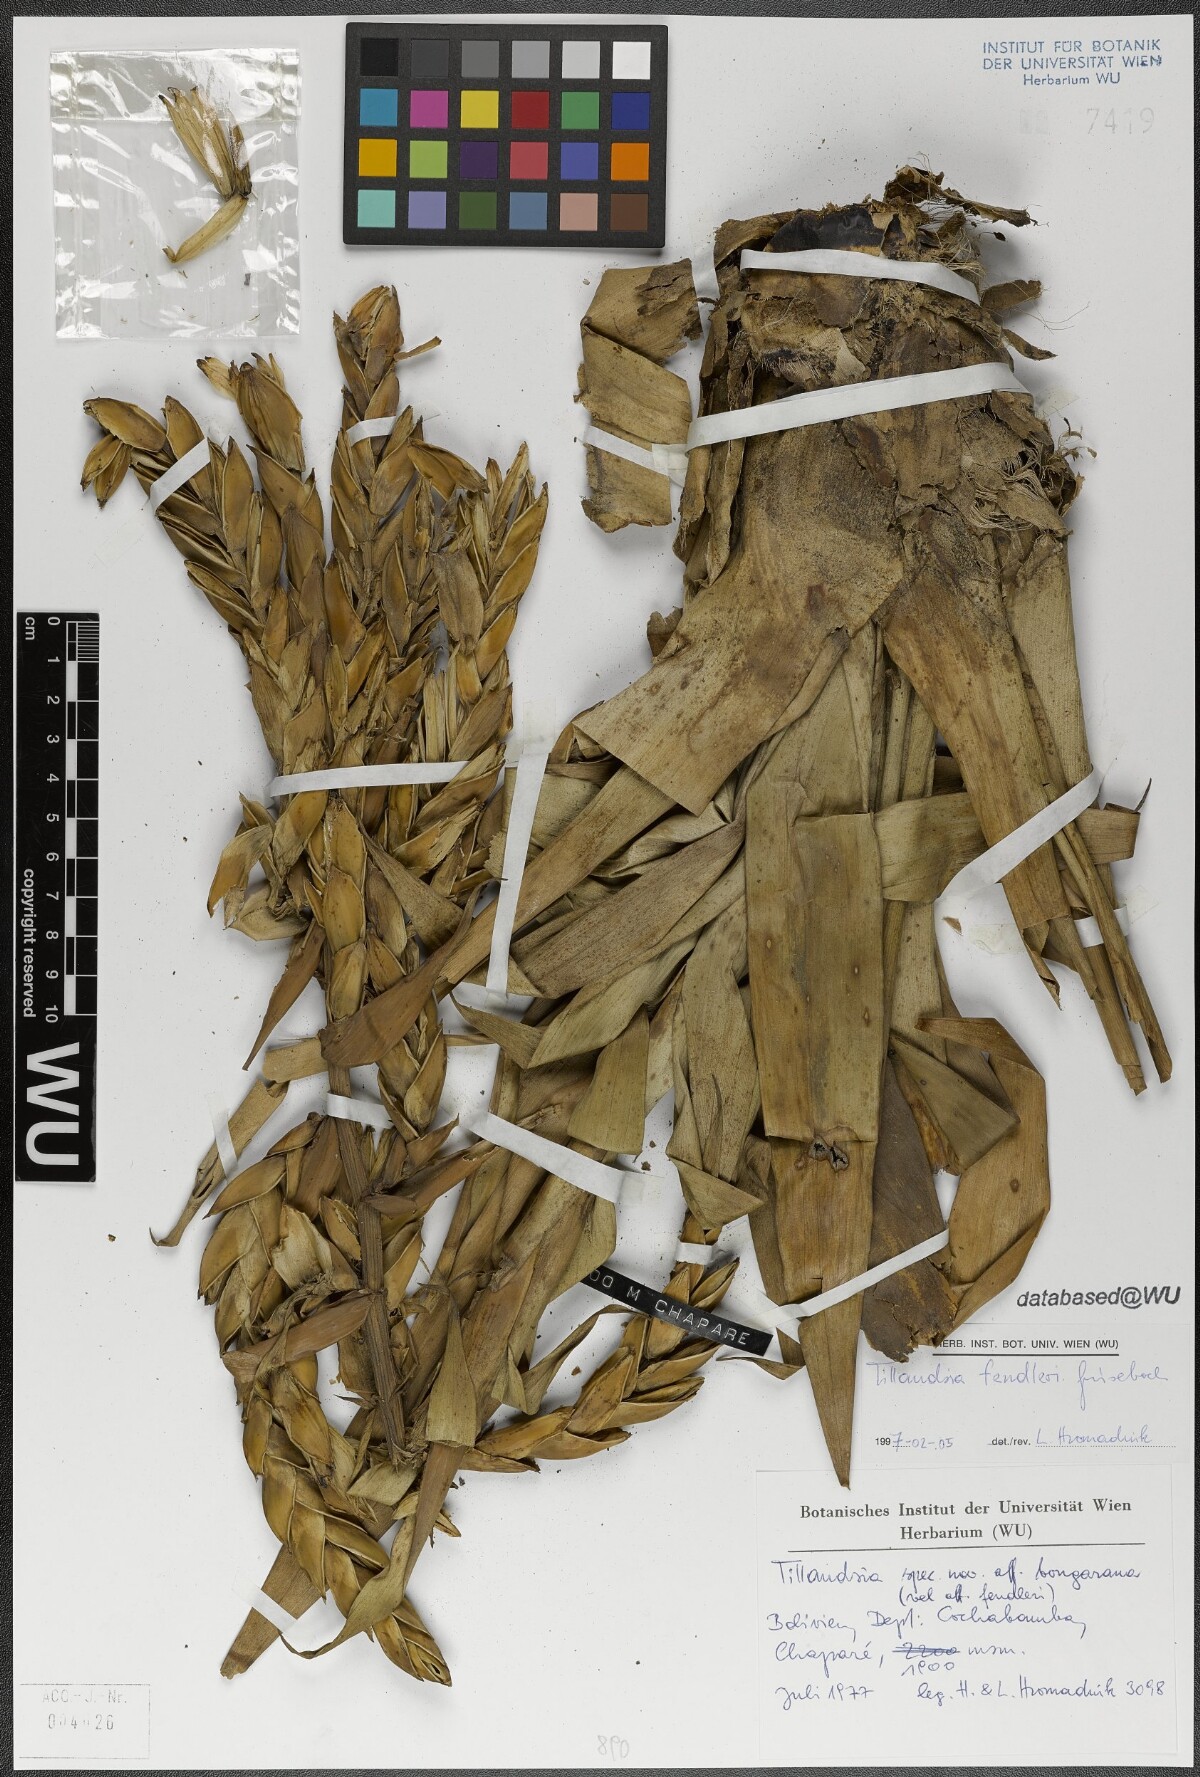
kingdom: Plantae
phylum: Tracheophyta
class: Liliopsida
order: Poales
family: Bromeliaceae
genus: Tillandsia
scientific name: Tillandsia fendleri
